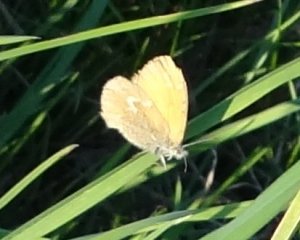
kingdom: Animalia
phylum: Arthropoda
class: Insecta
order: Lepidoptera
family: Nymphalidae
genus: Coenonympha
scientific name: Coenonympha tullia
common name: Large Heath
